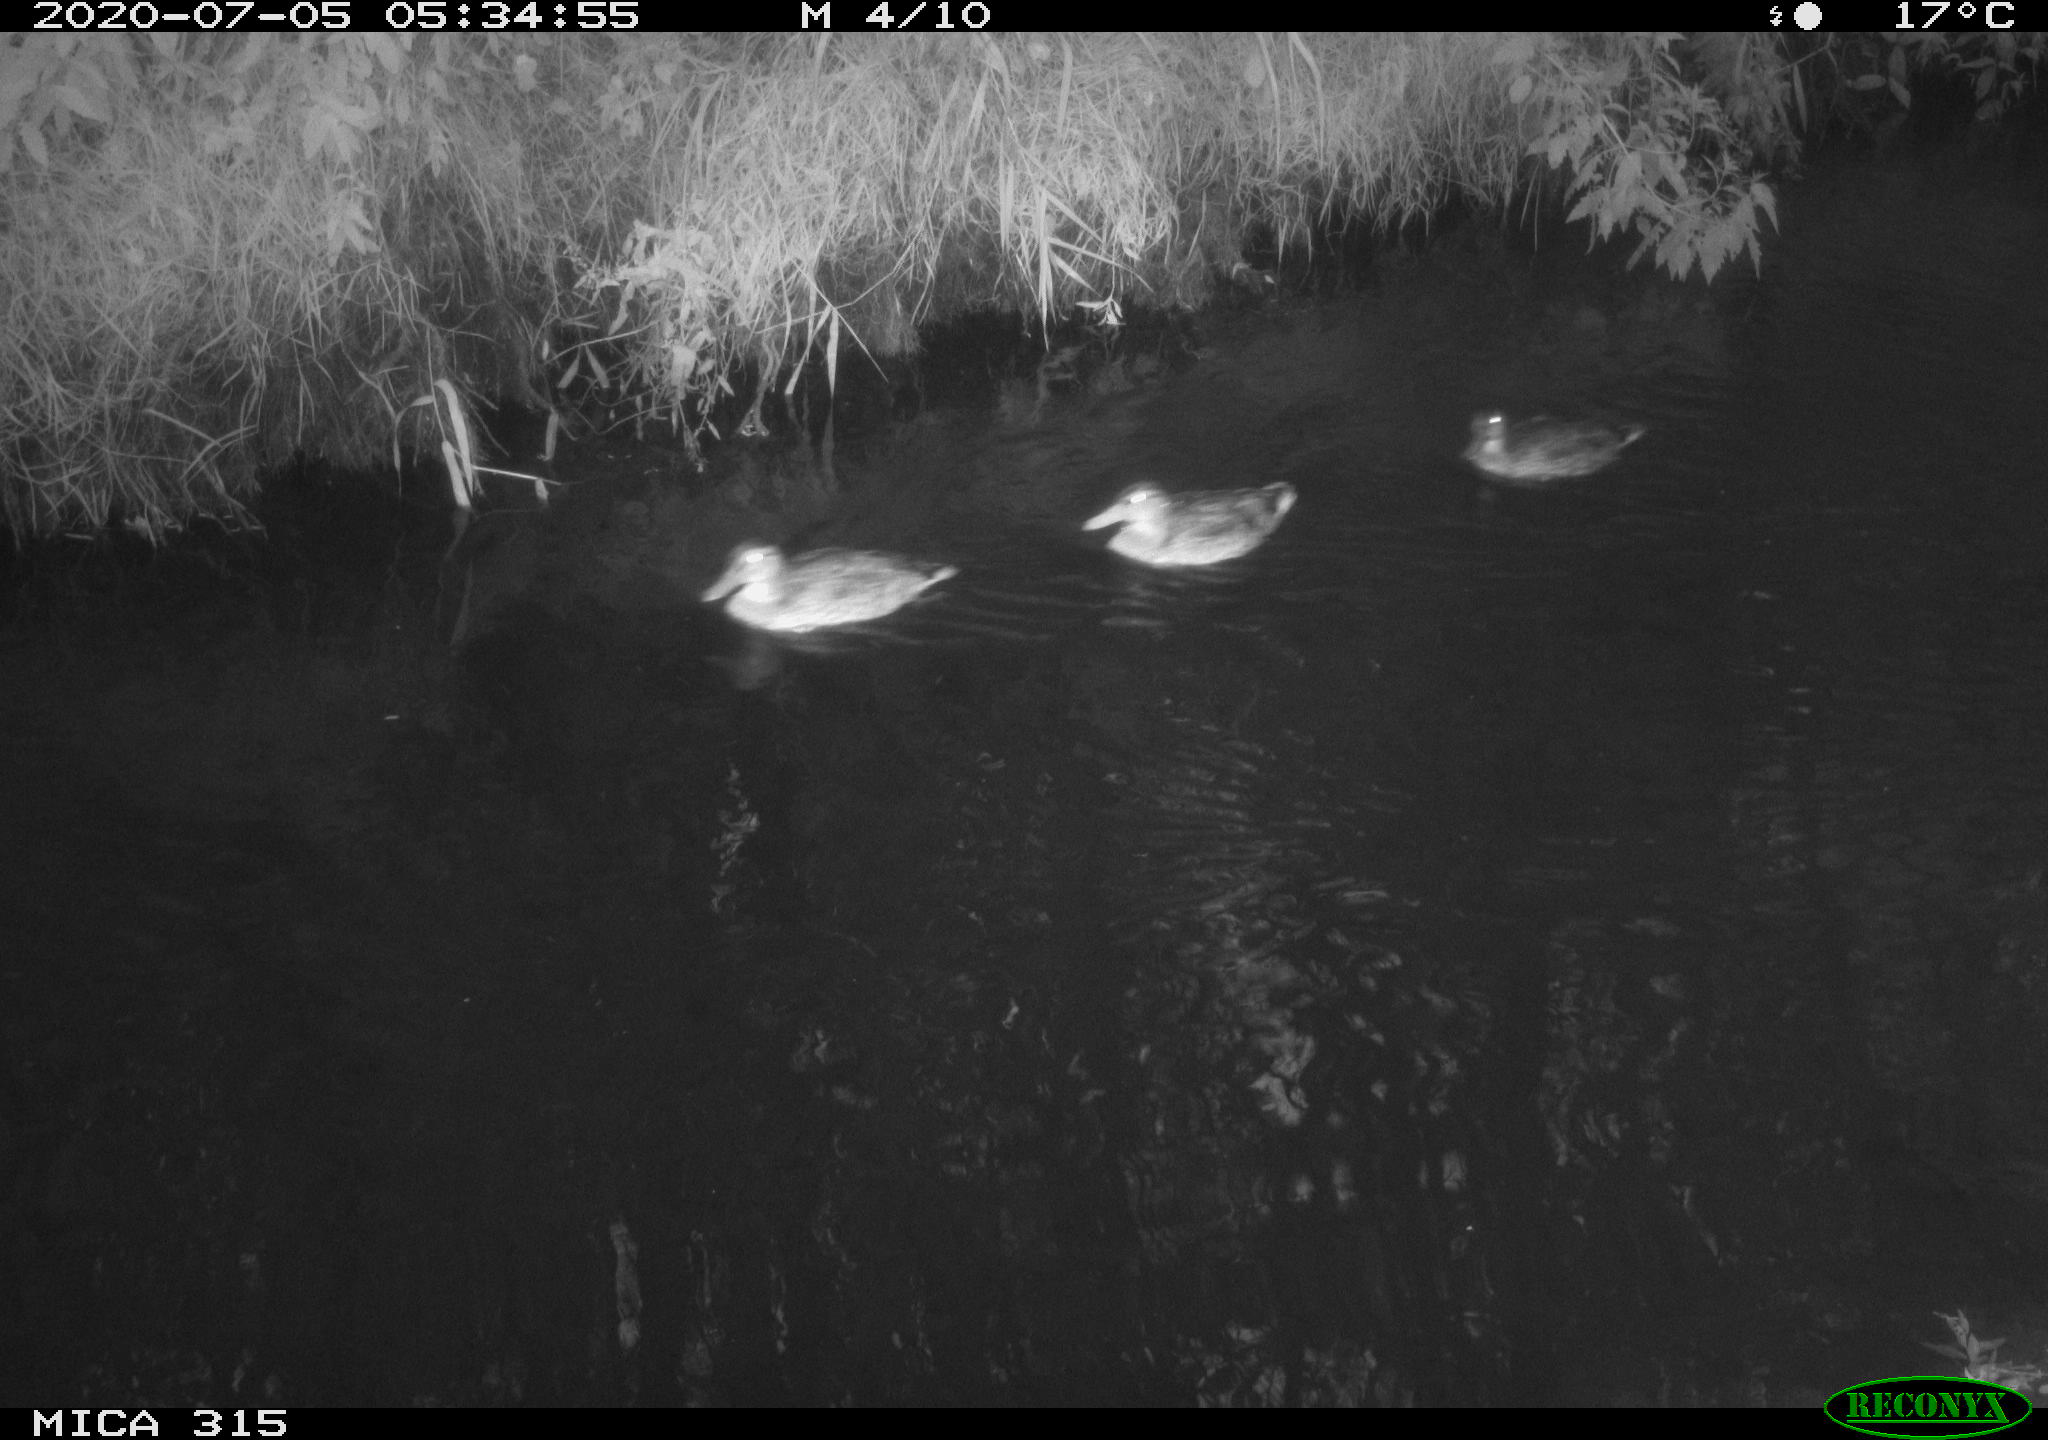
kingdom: Animalia
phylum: Chordata
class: Aves
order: Anseriformes
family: Anatidae
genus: Anas
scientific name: Anas platyrhynchos
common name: Mallard
